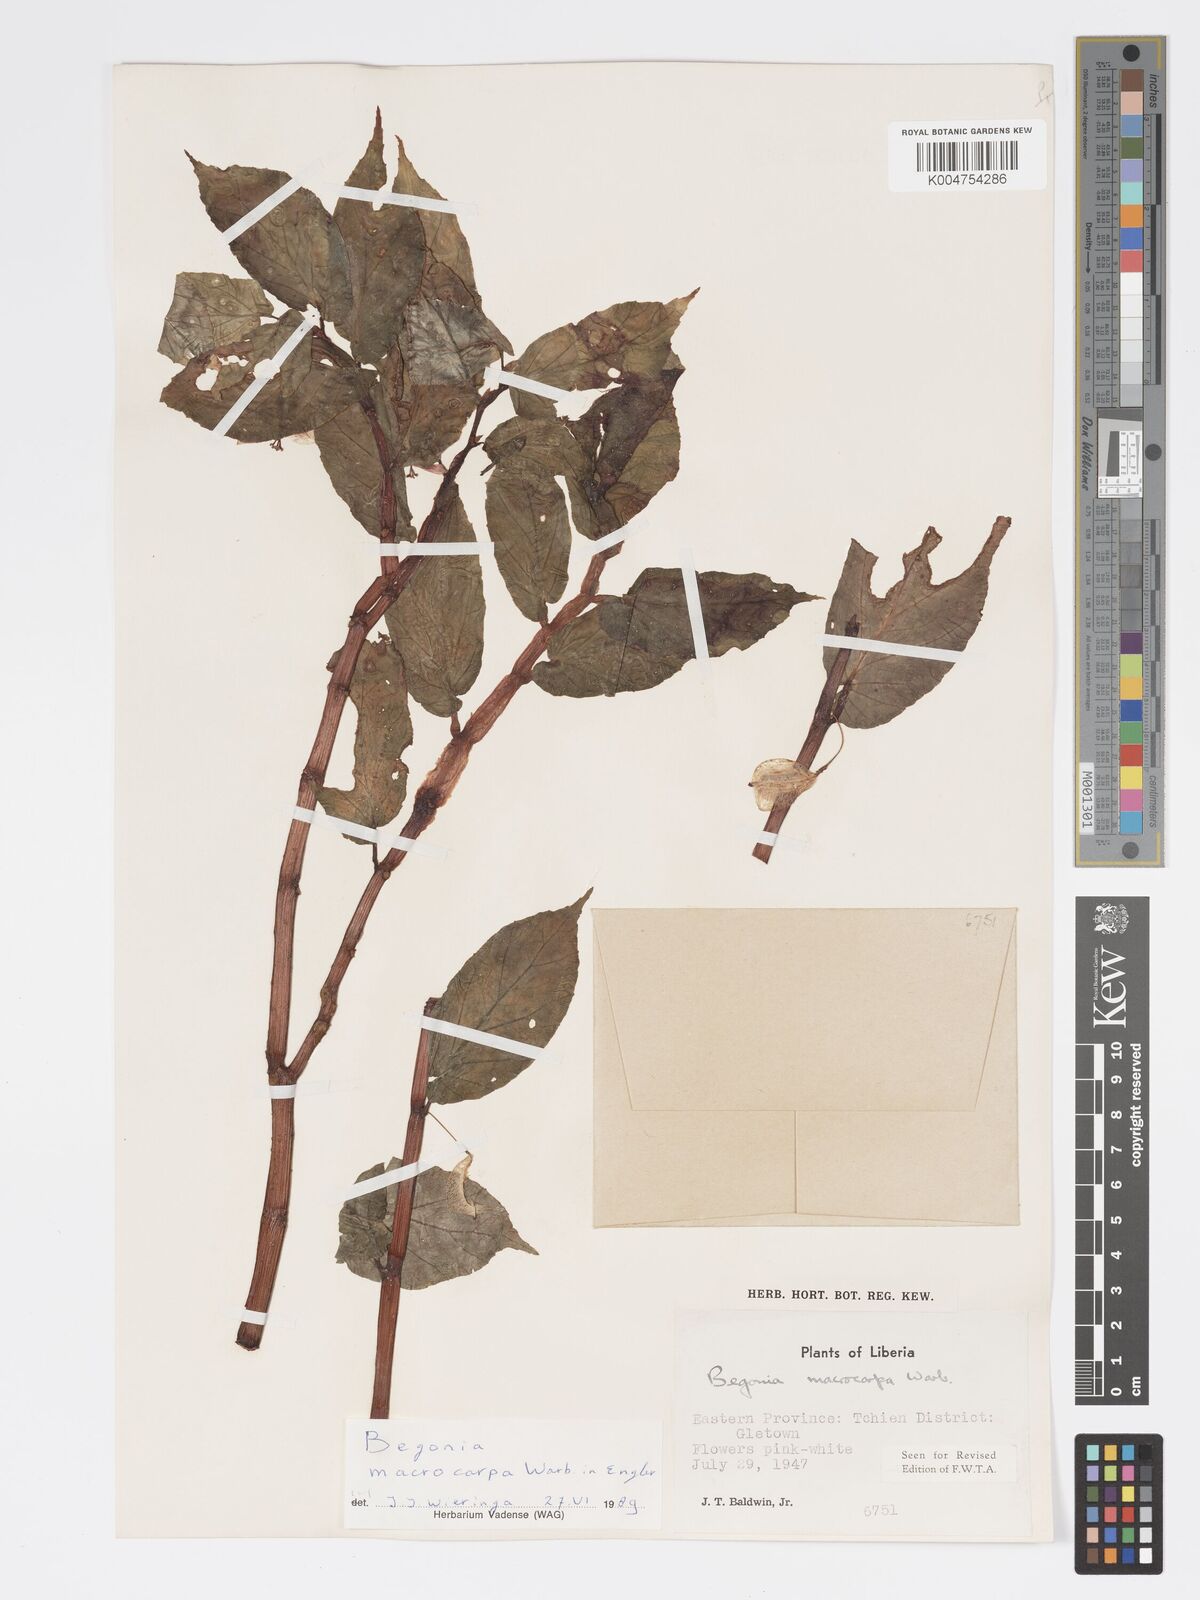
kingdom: Plantae
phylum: Tracheophyta
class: Magnoliopsida
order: Cucurbitales
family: Begoniaceae
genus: Begonia
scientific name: Begonia macrocarpa
